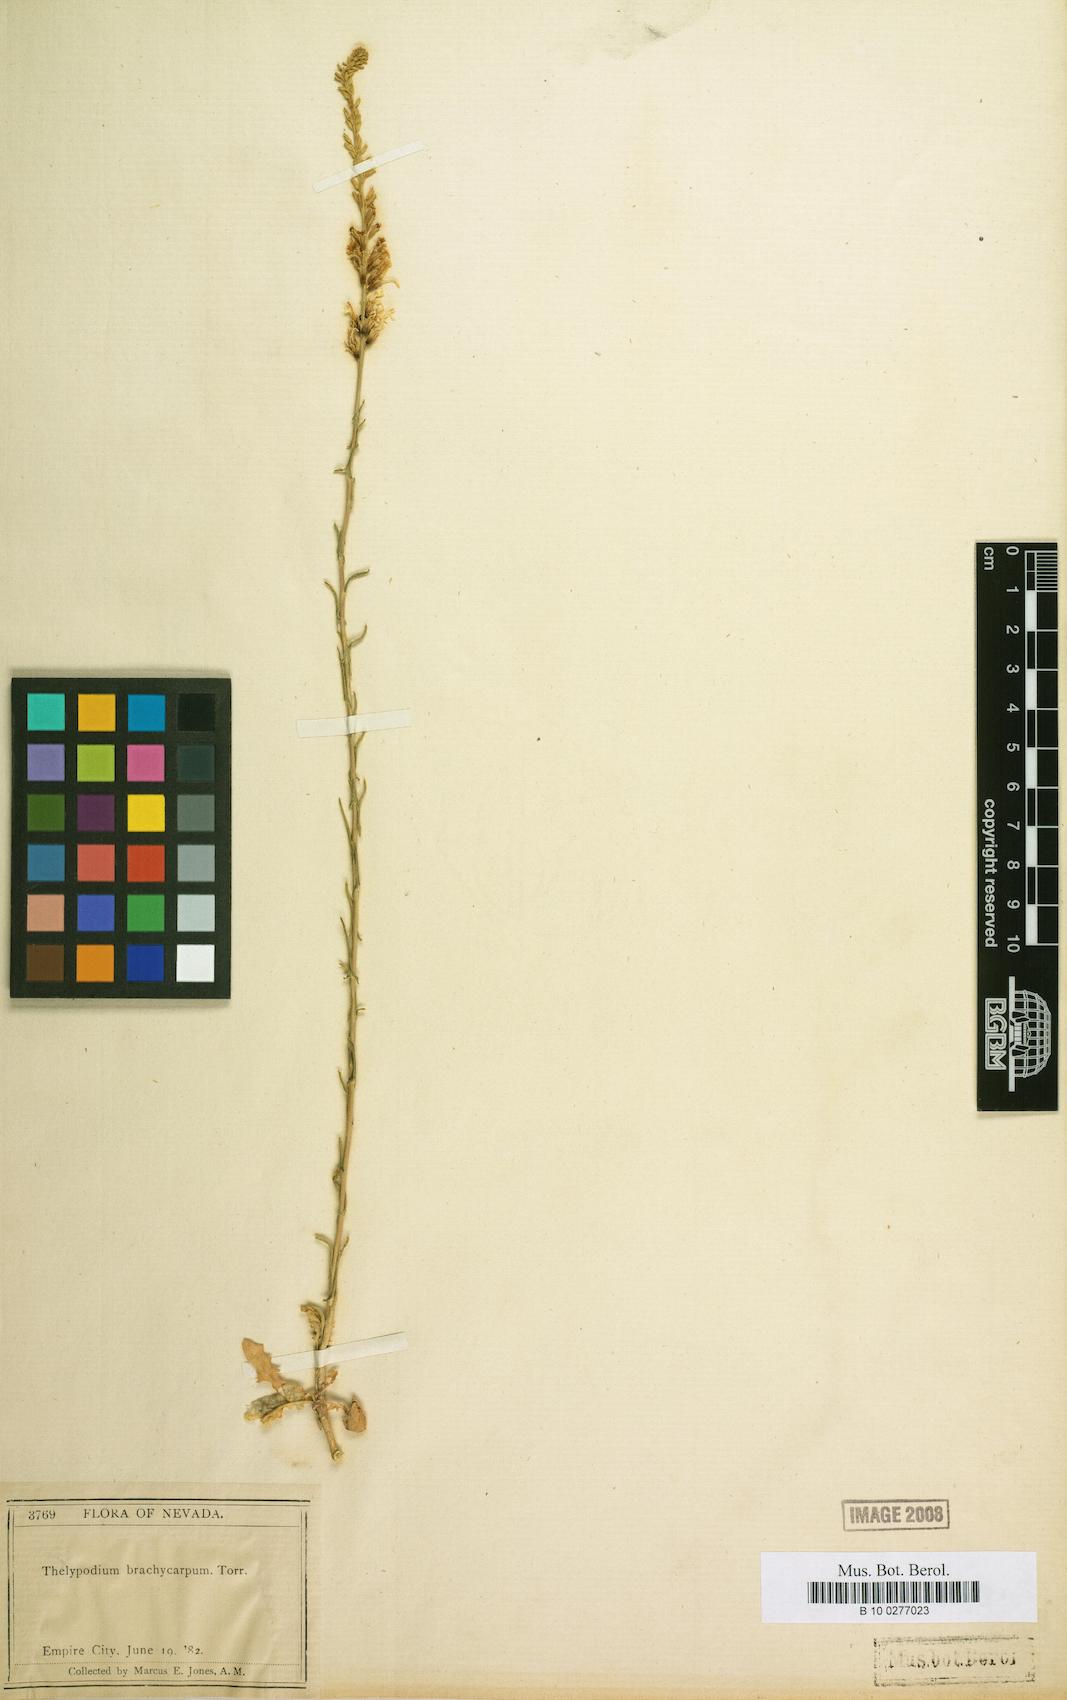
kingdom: Plantae
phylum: Tracheophyta
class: Magnoliopsida
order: Brassicales
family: Brassicaceae
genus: Thelypodium
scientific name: Thelypodium brachycarpum
